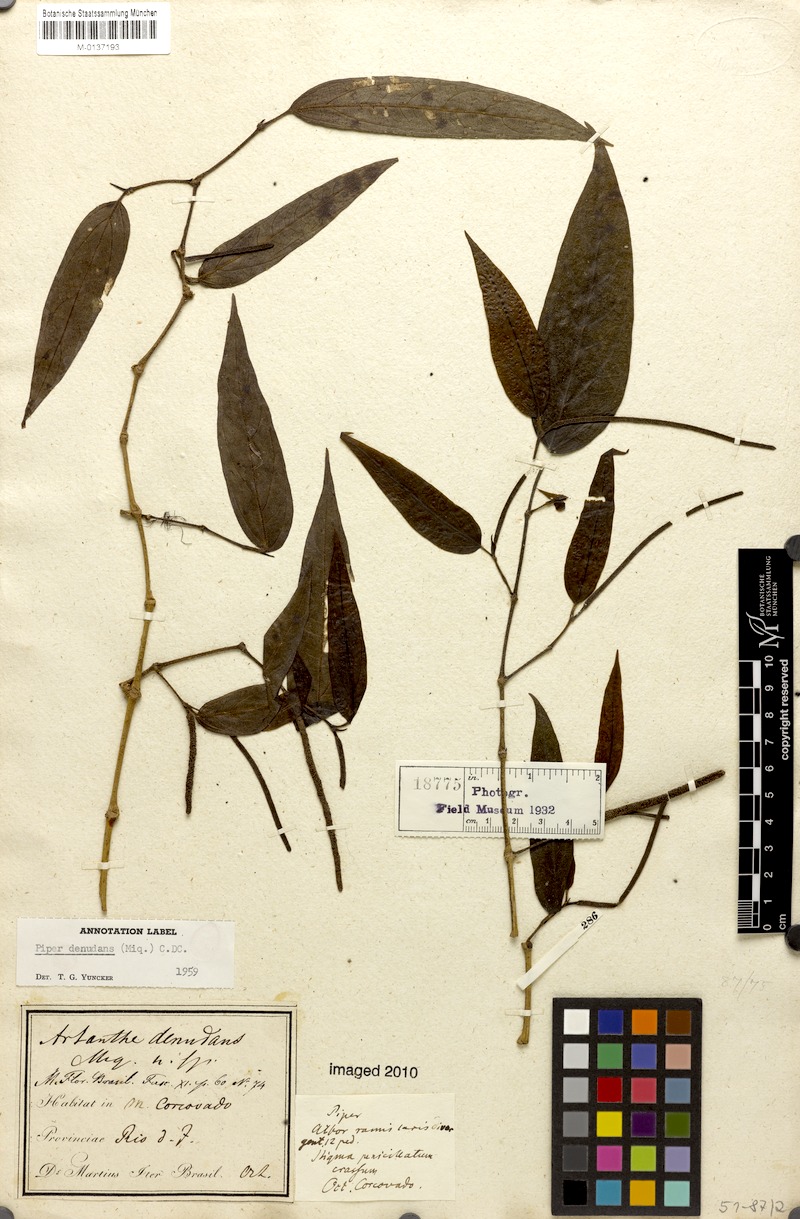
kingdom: Plantae
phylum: Tracheophyta
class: Magnoliopsida
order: Piperales
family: Piperaceae
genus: Piper
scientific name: Piper lepturum
